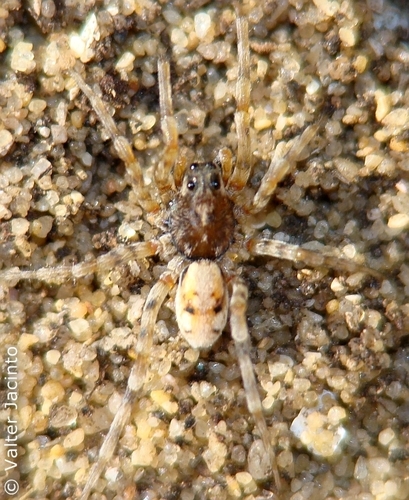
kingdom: Animalia
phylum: Arthropoda
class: Arachnida
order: Araneae
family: Lycosidae
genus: Arctosa
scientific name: Arctosa perita
